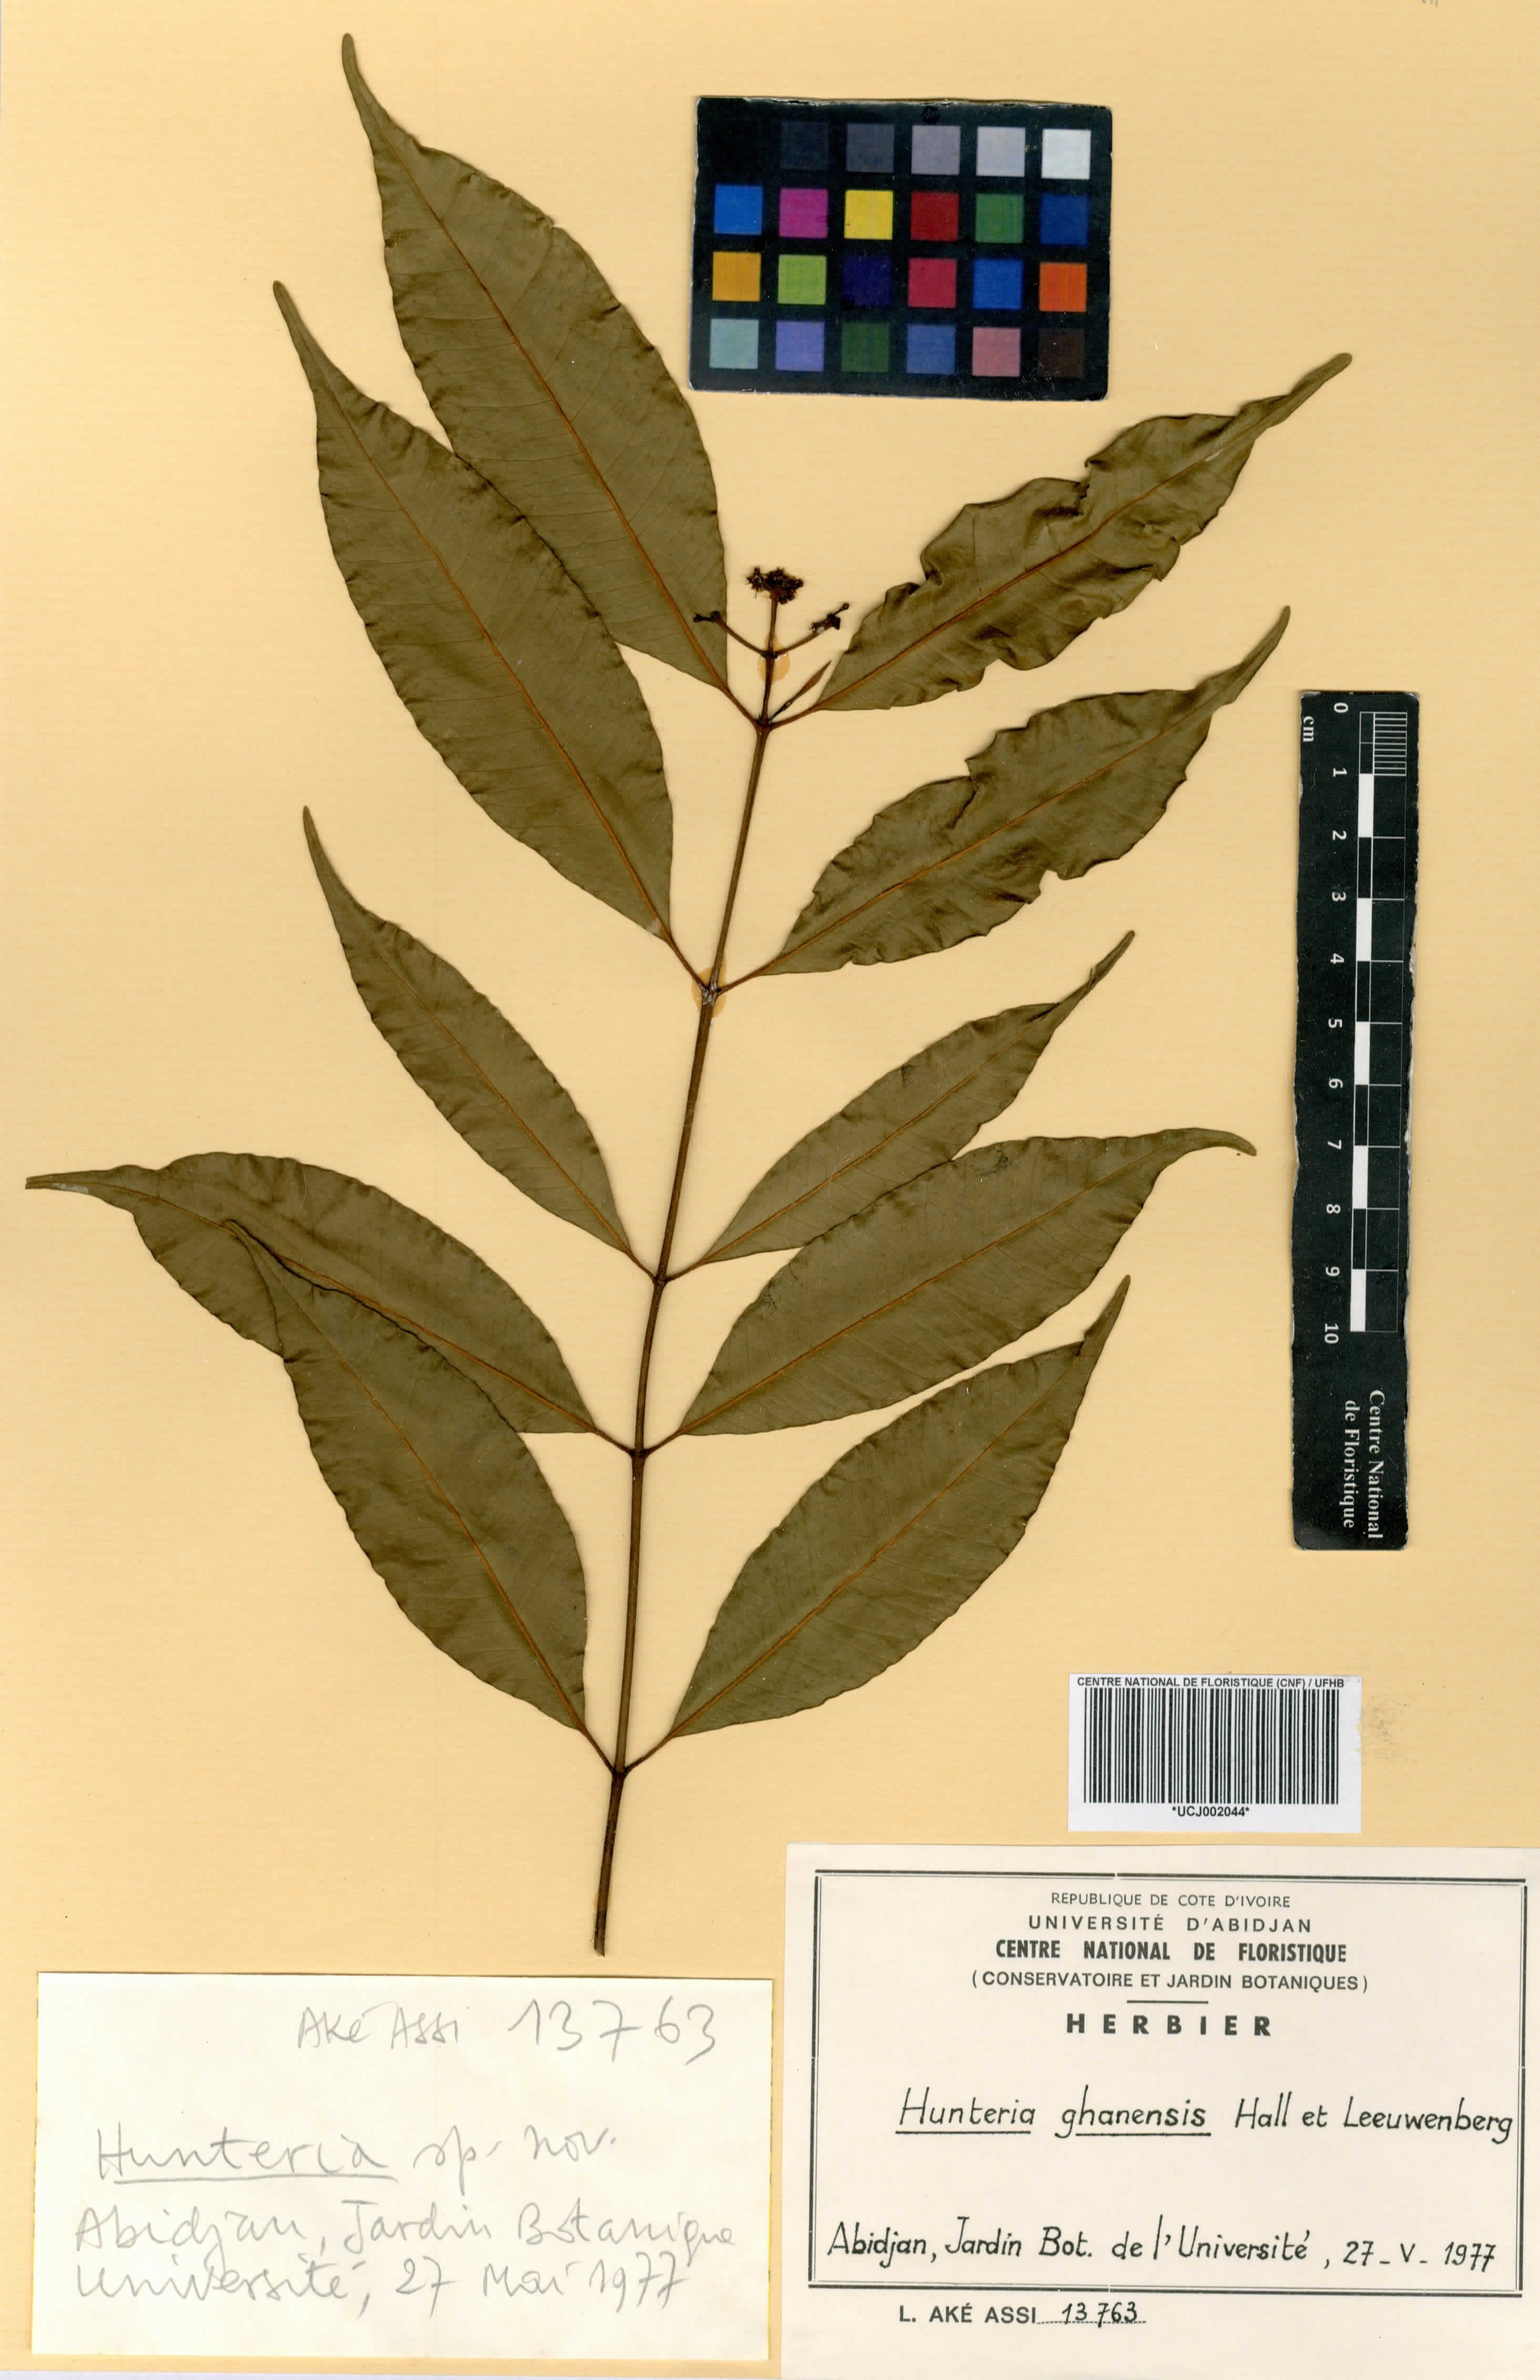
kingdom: Plantae
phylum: Tracheophyta
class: Magnoliopsida
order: Gentianales
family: Apocynaceae
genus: Hunteria
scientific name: Hunteria ghanensis
